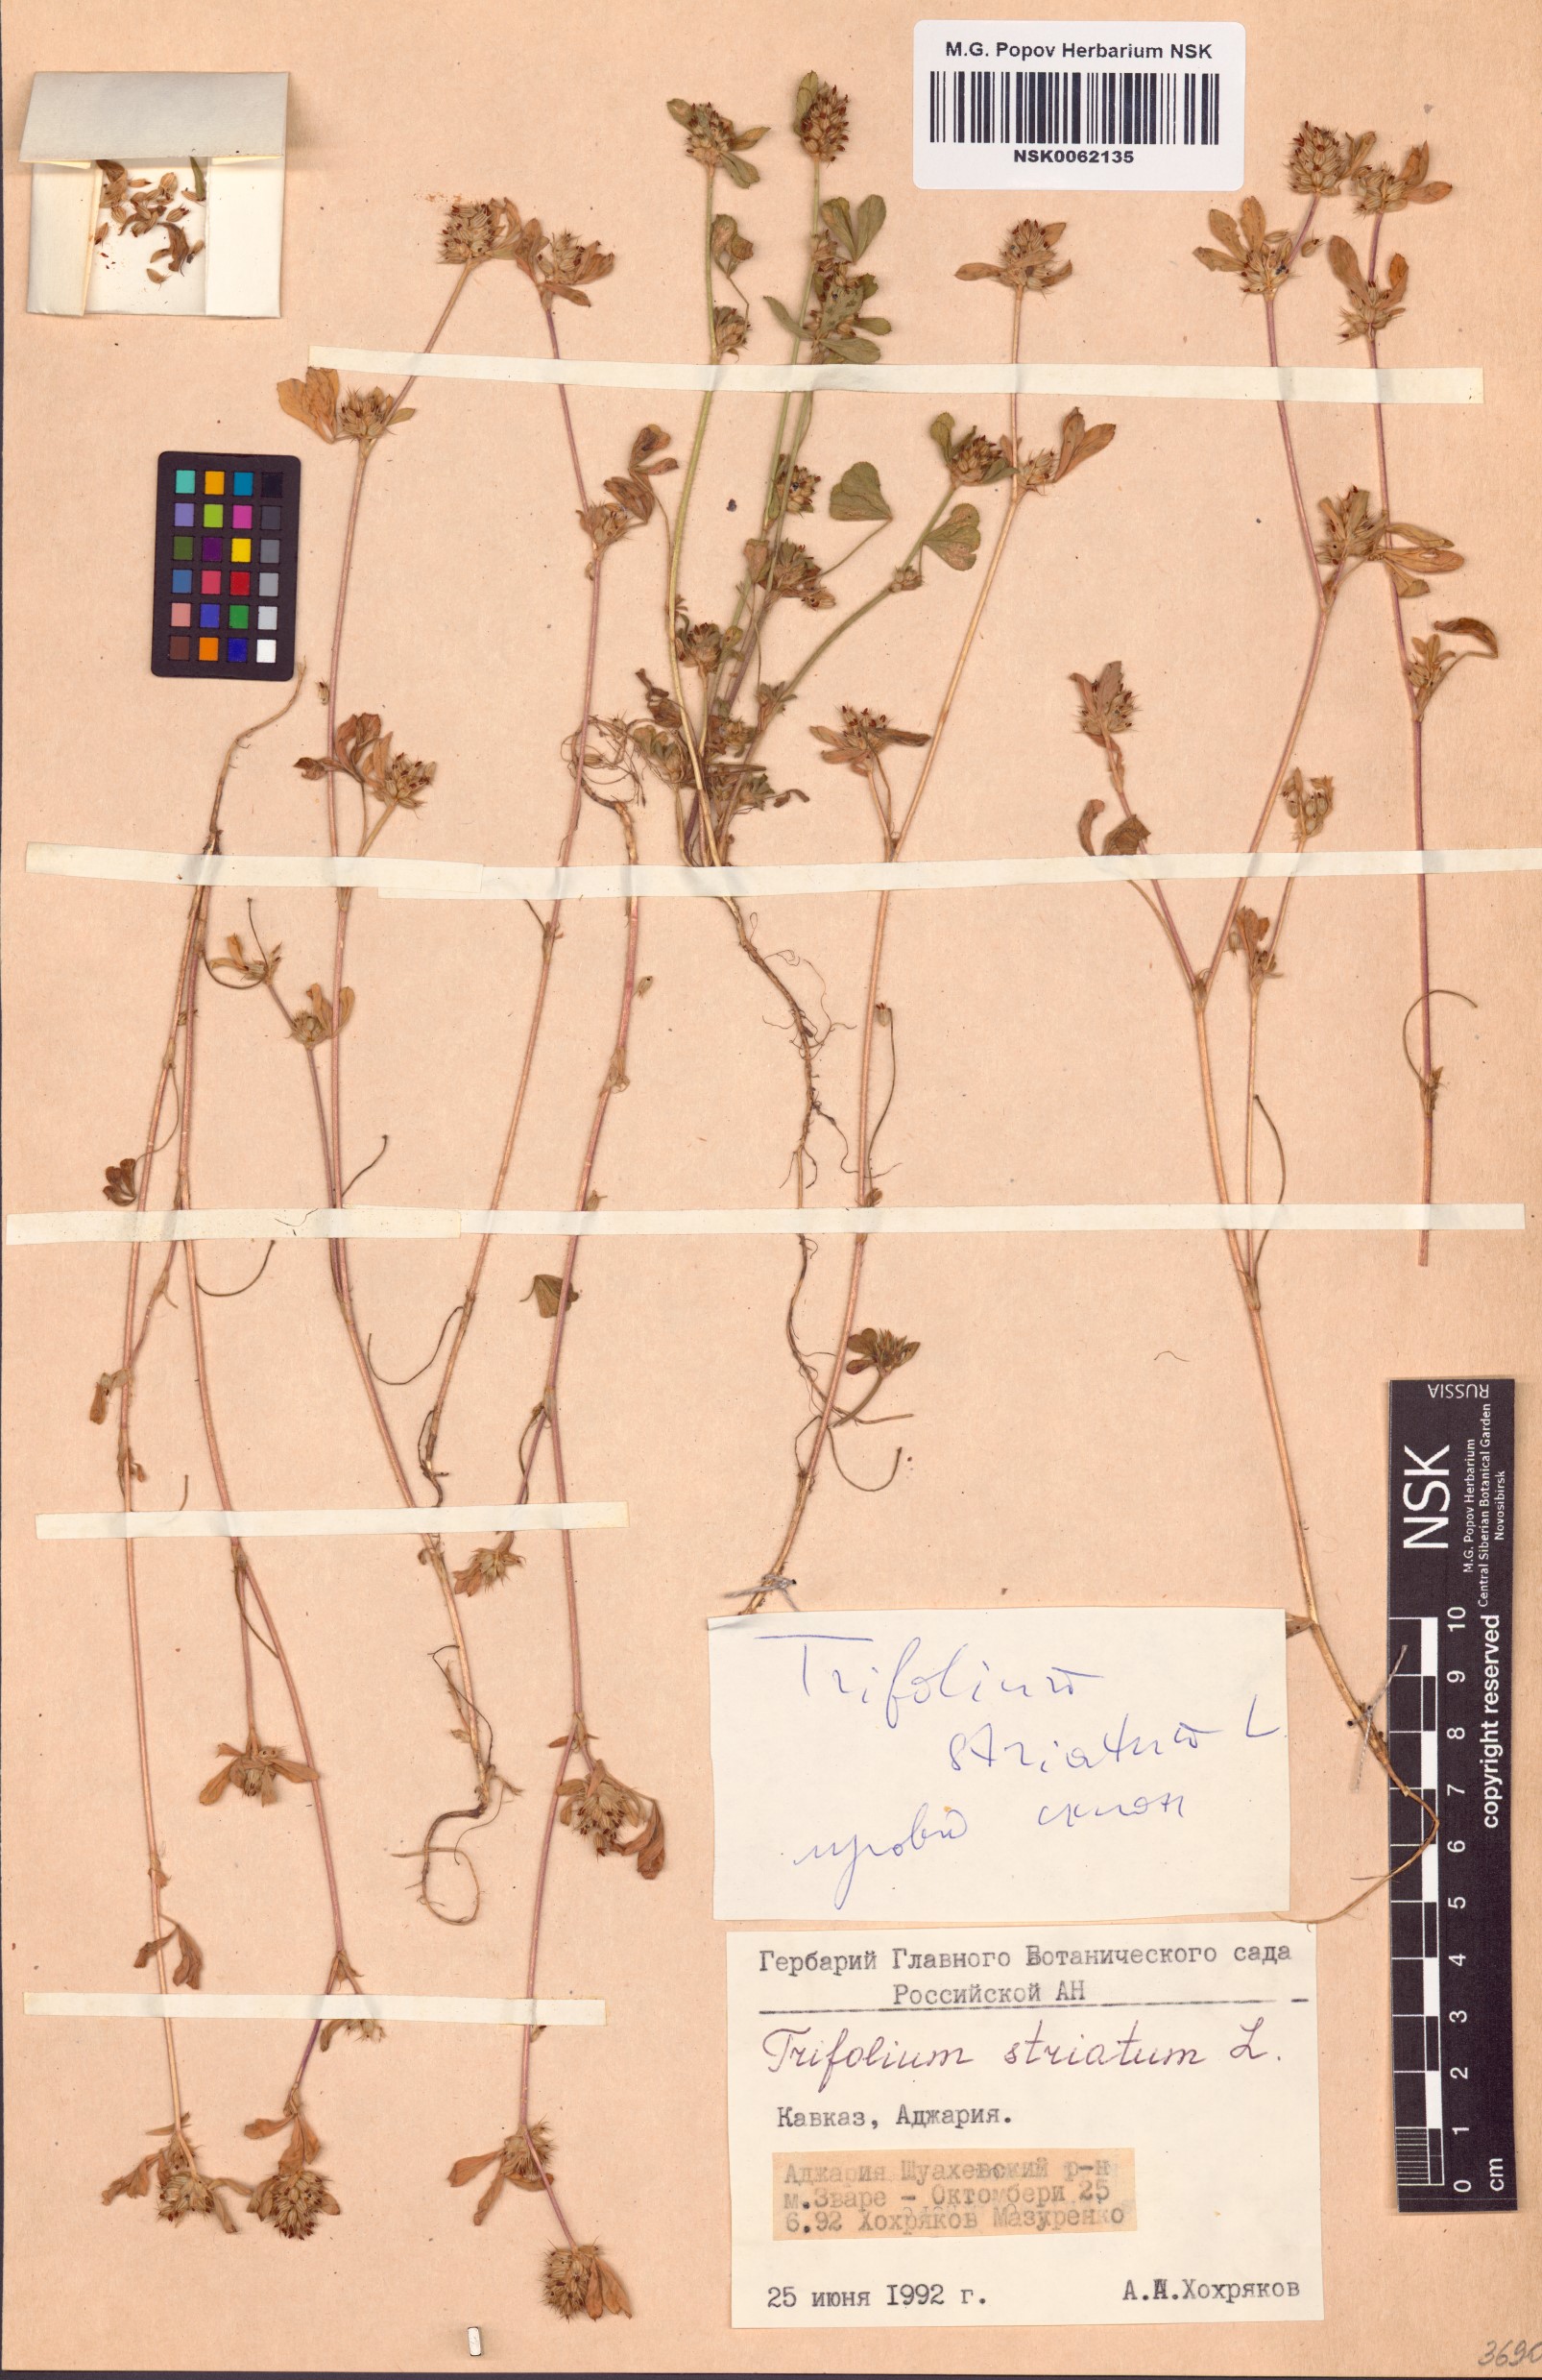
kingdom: Plantae
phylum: Tracheophyta
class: Magnoliopsida
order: Fabales
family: Fabaceae
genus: Trifolium
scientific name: Trifolium striatum
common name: Knotted clover
